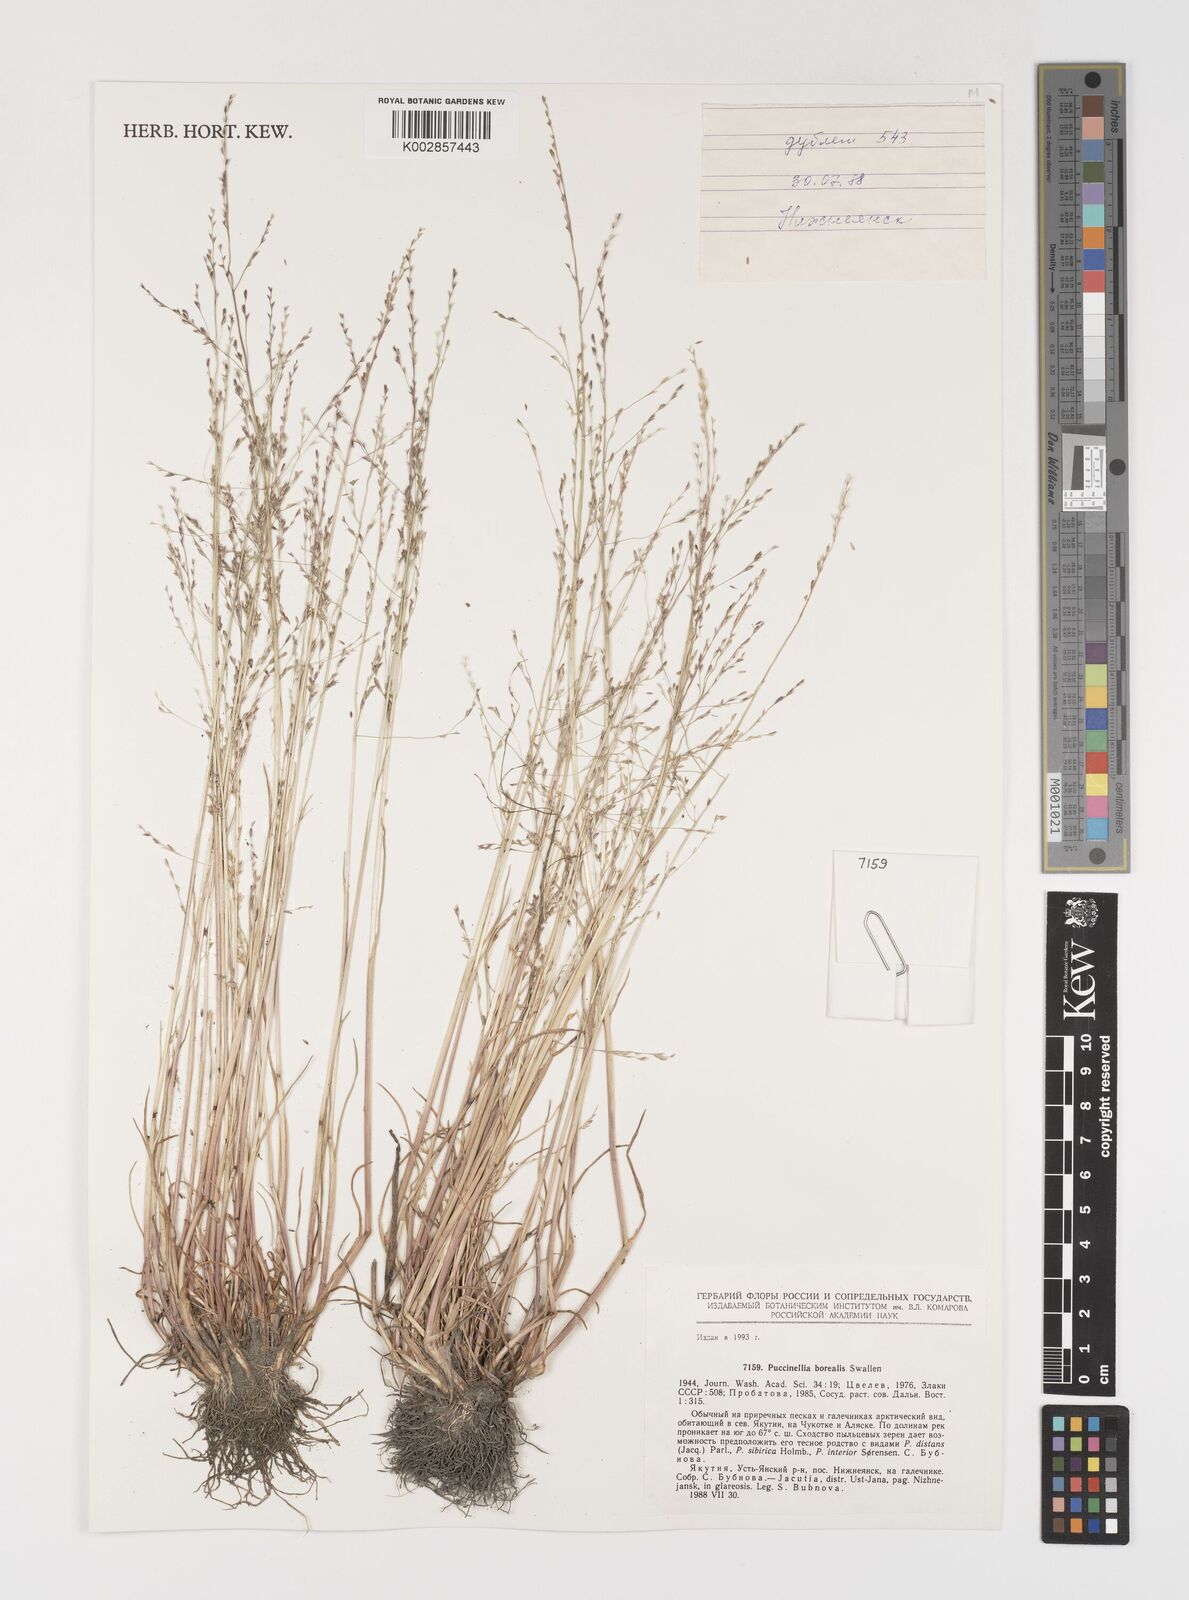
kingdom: Plantae
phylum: Tracheophyta
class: Liliopsida
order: Poales
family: Poaceae
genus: Puccinellia
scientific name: Puccinellia nuttalliana
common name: Nuttall's alkali grass
